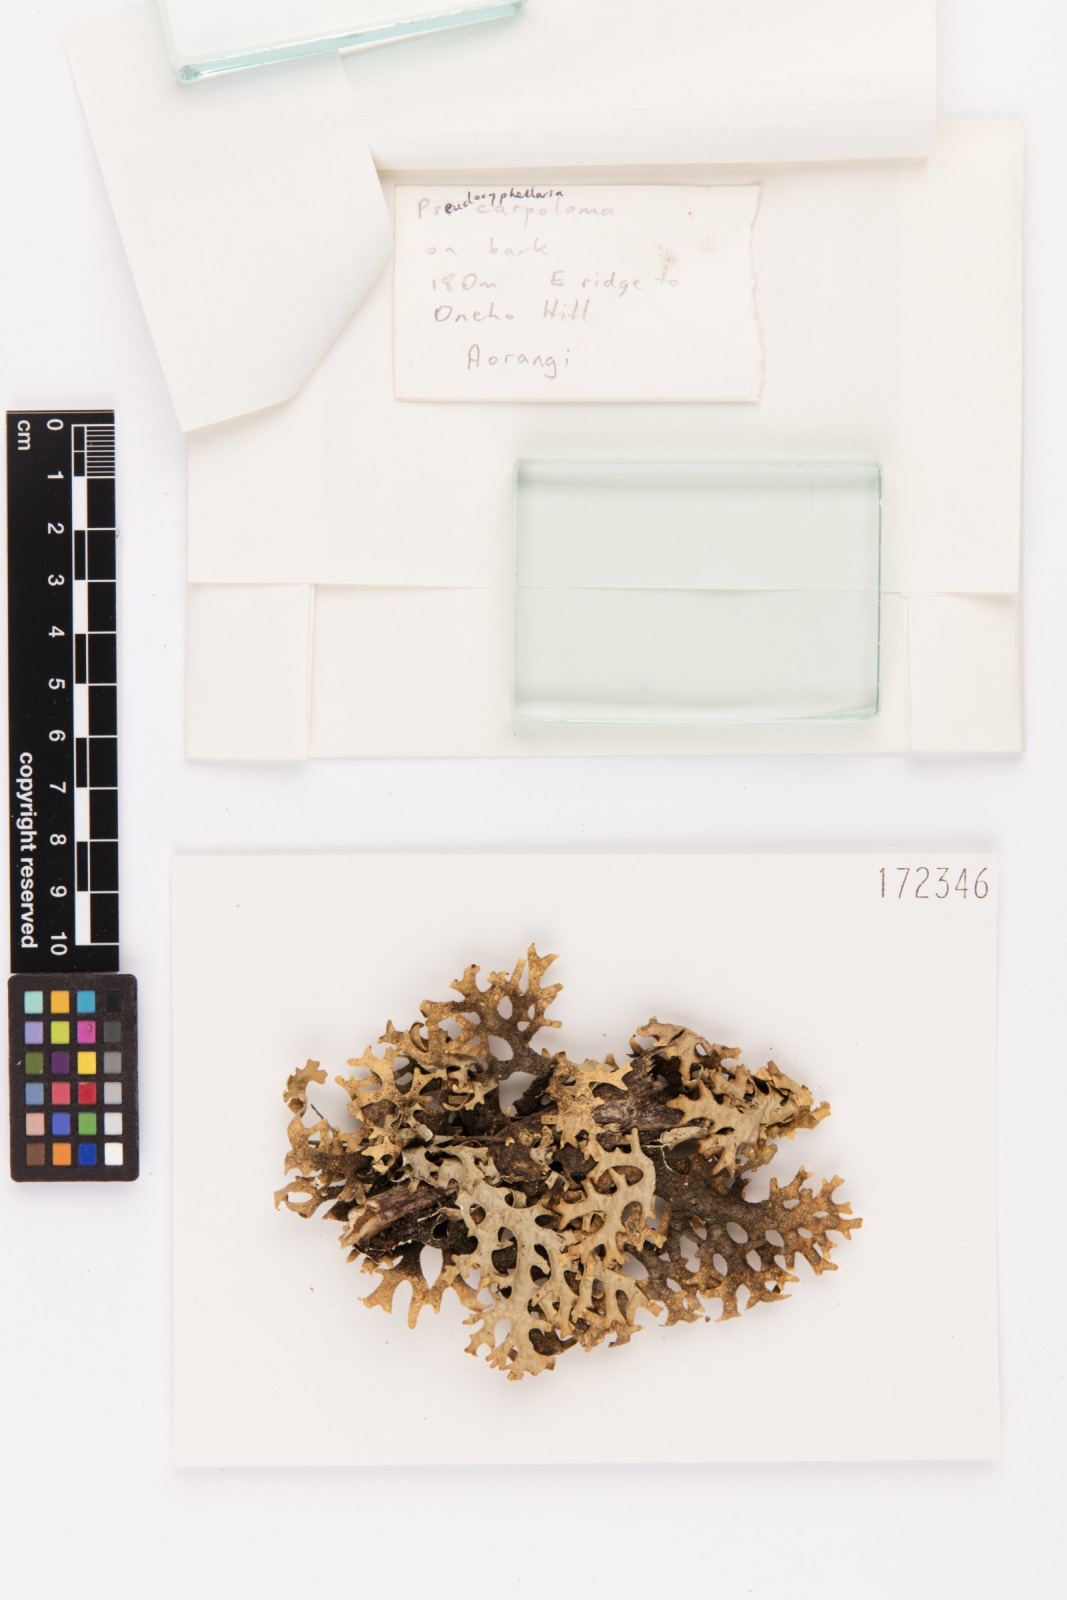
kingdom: Fungi
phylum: Ascomycota
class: Lecanoromycetes
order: Peltigerales
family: Lobariaceae
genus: Pseudocyphellaria
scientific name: Pseudocyphellaria carpoloma
